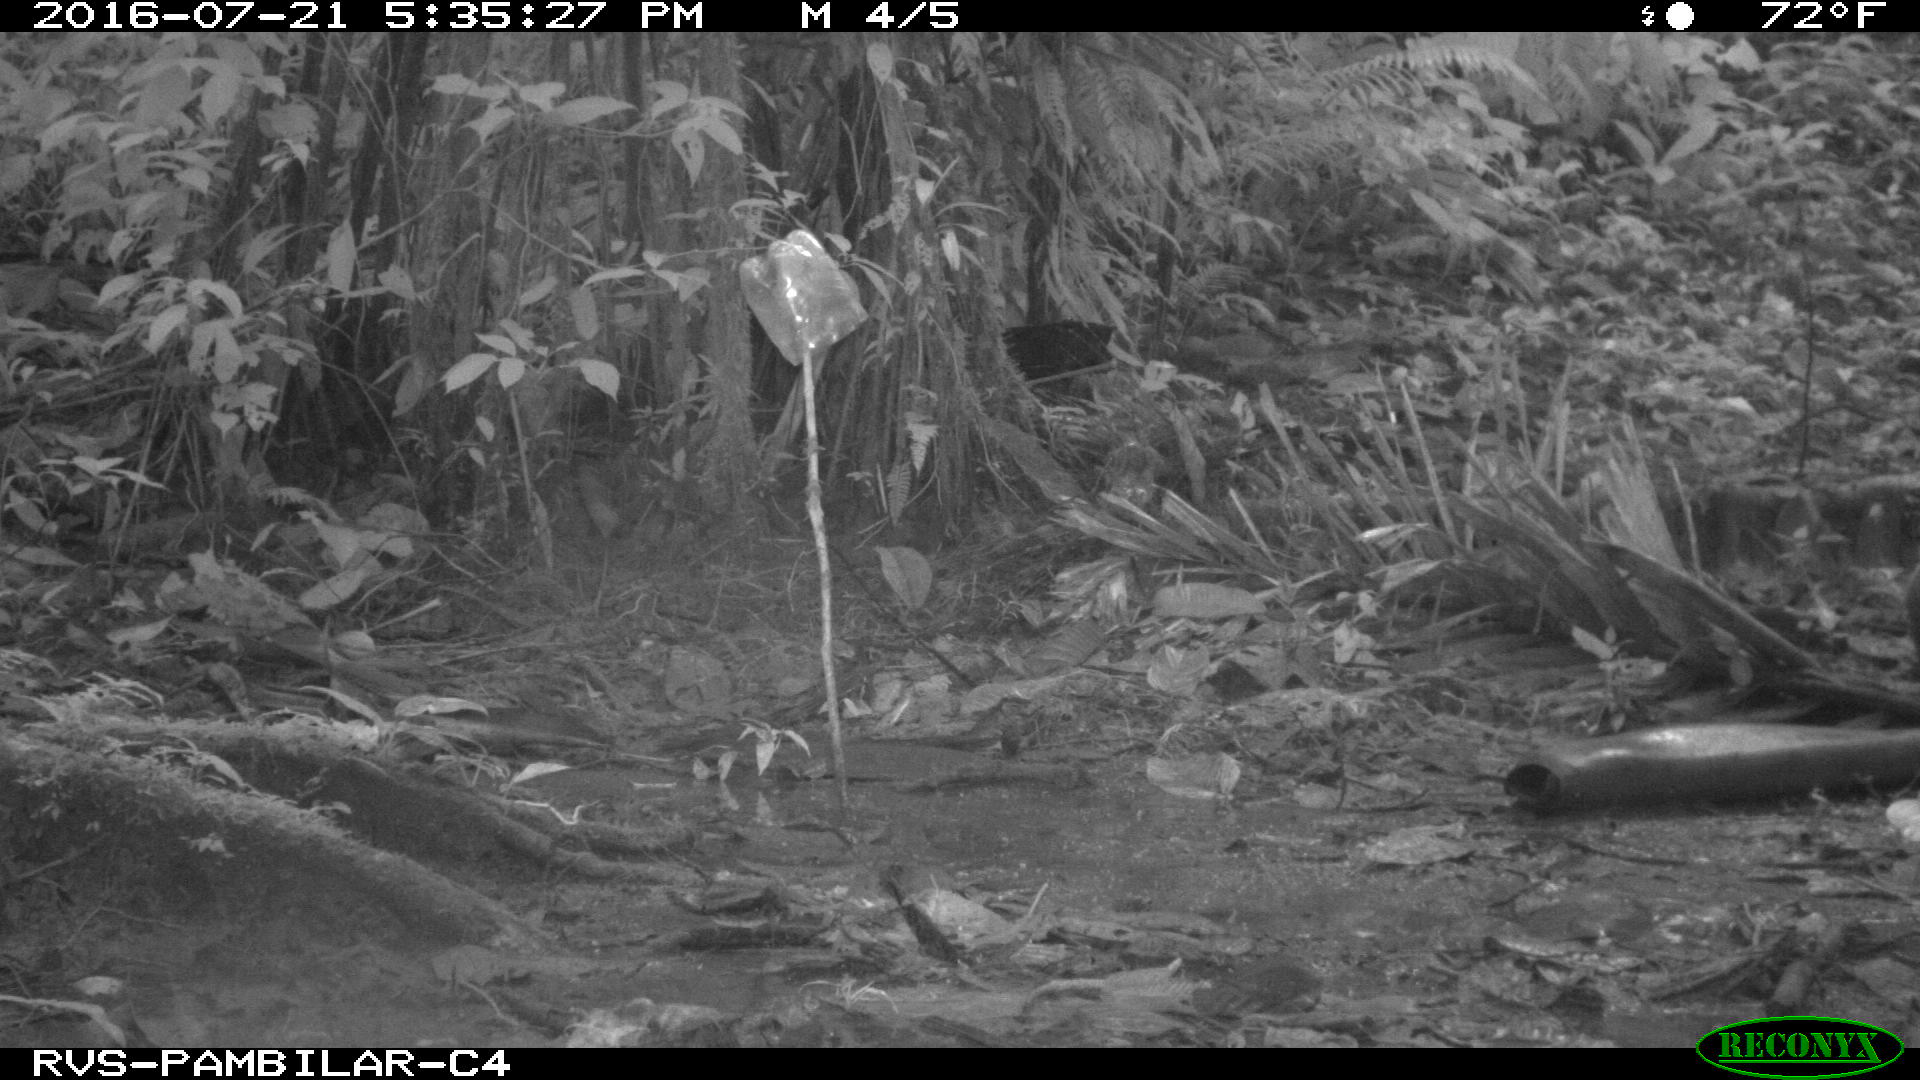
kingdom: Animalia
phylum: Chordata
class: Mammalia
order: Rodentia
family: Dasyproctidae
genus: Dasyprocta
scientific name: Dasyprocta punctata
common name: Central american agouti
